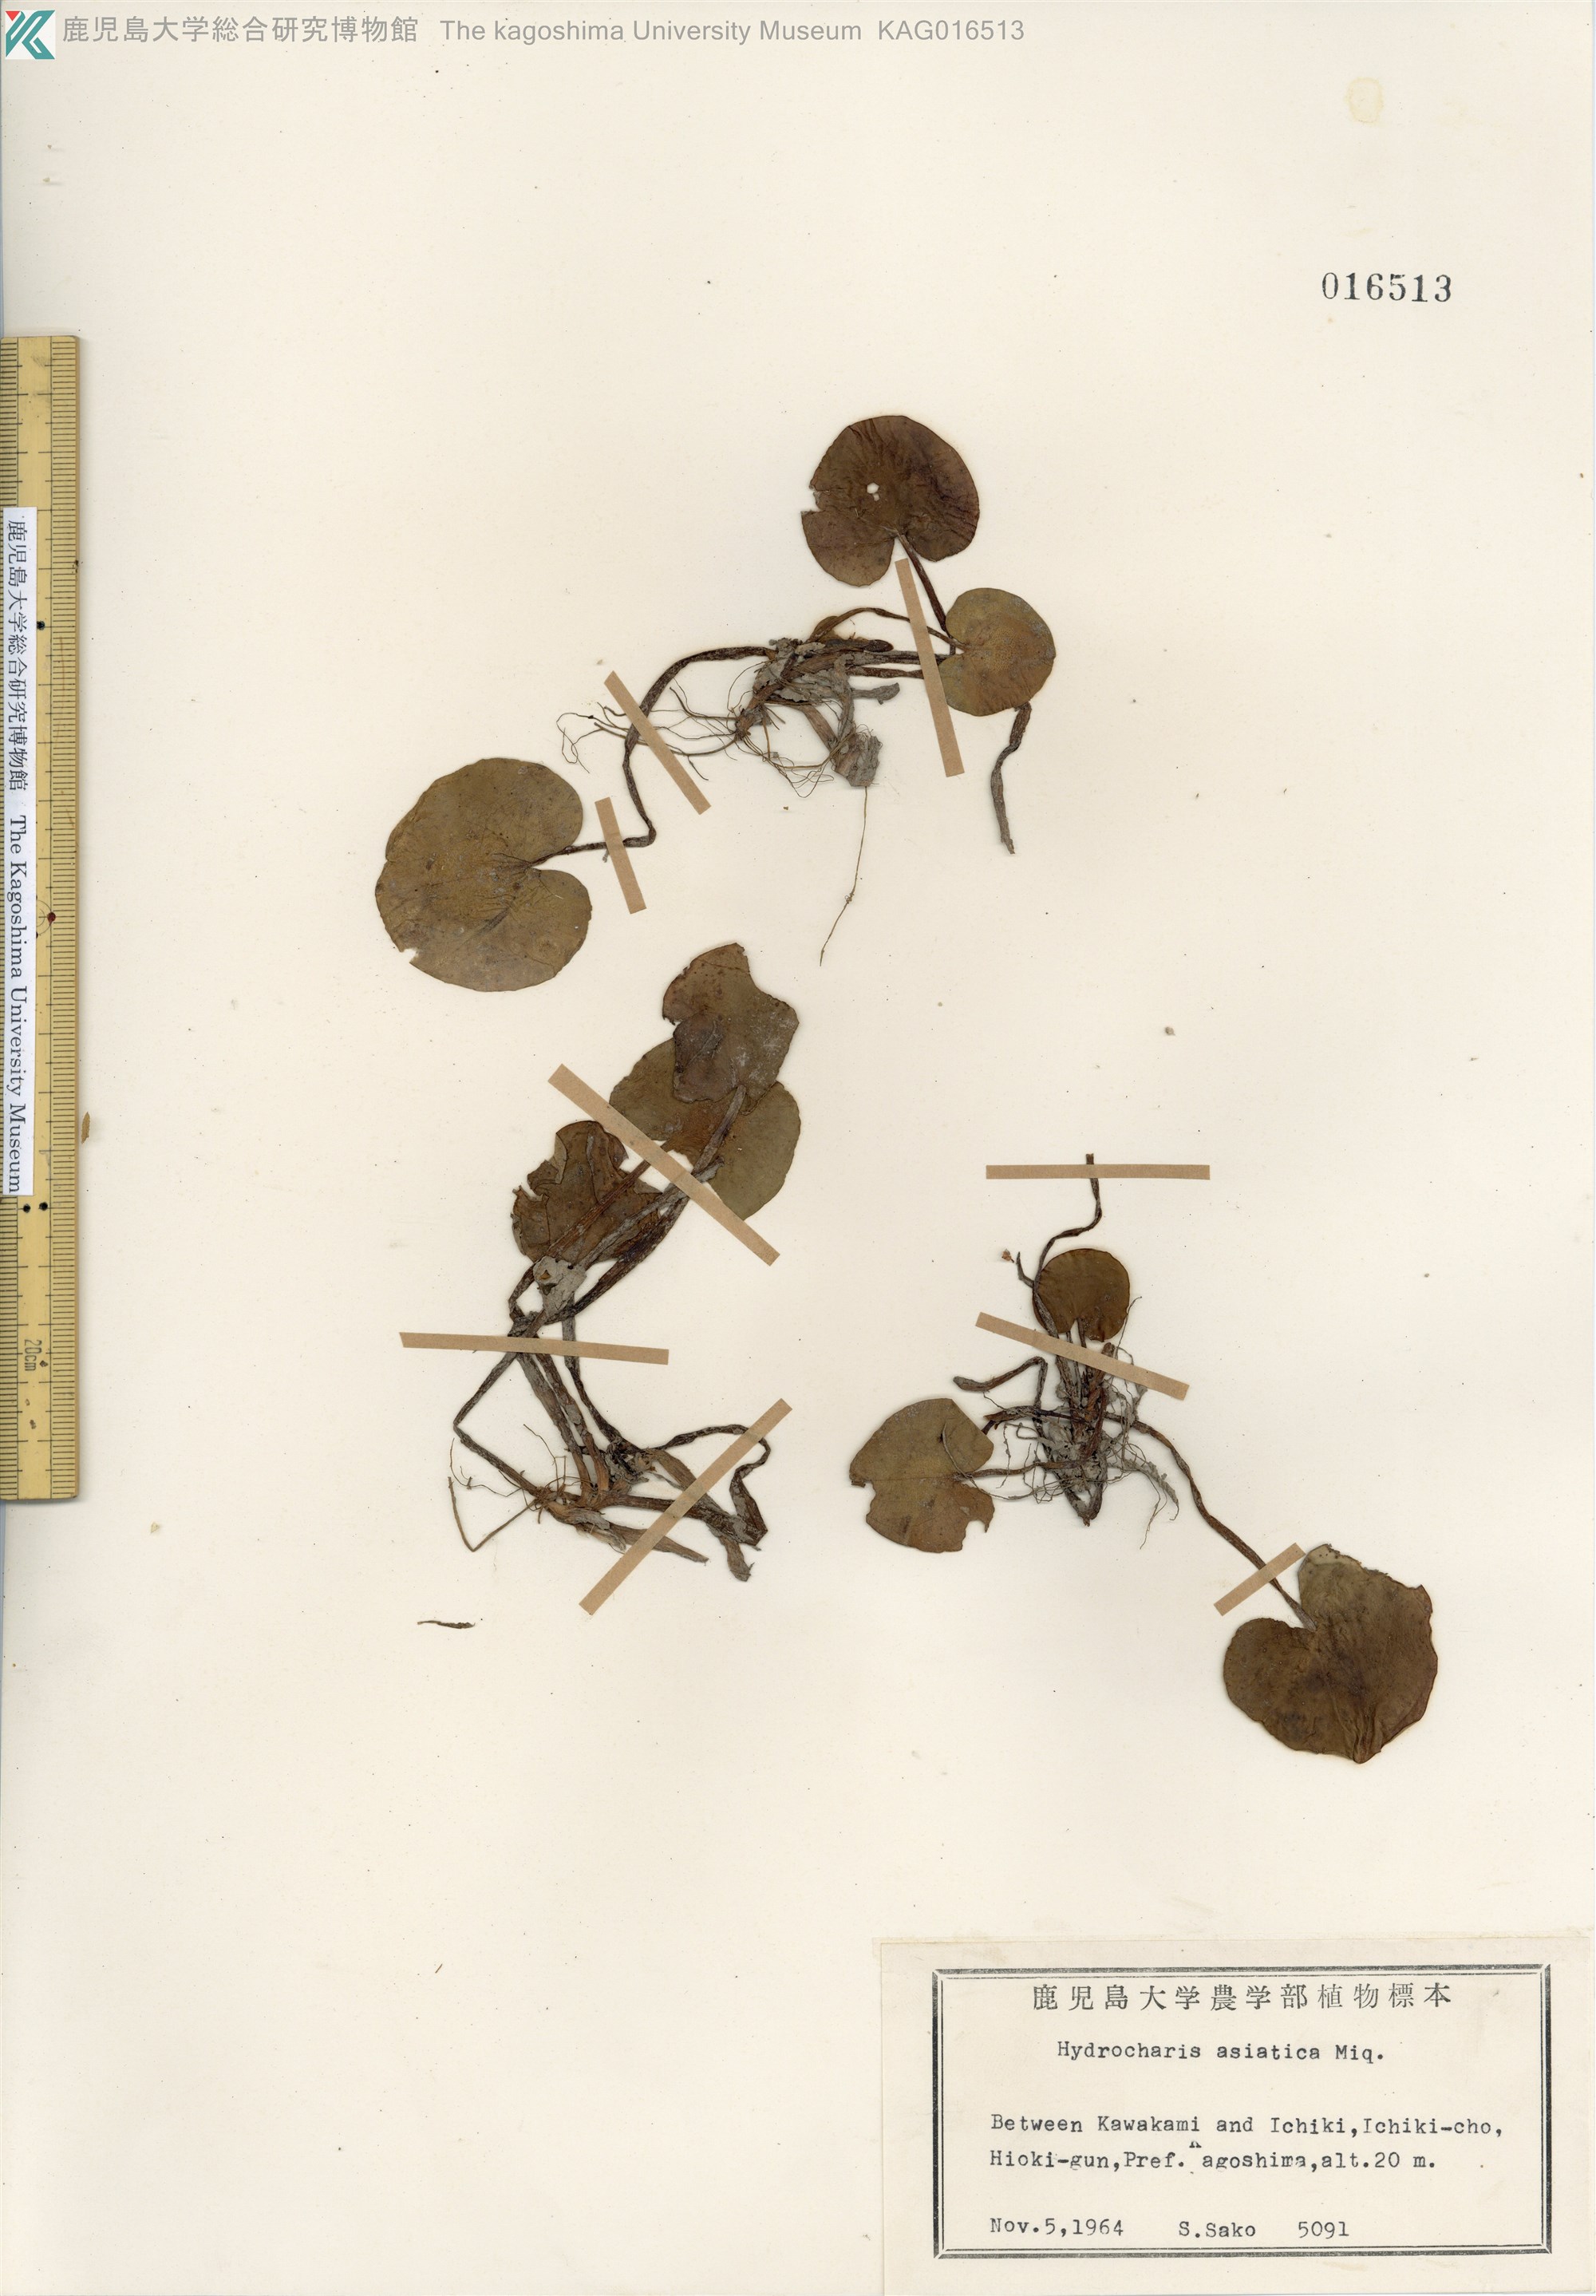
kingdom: Plantae
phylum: Tracheophyta
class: Liliopsida
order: Alismatales
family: Hydrocharitaceae
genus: Hydrocharis
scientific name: Hydrocharis dubia
